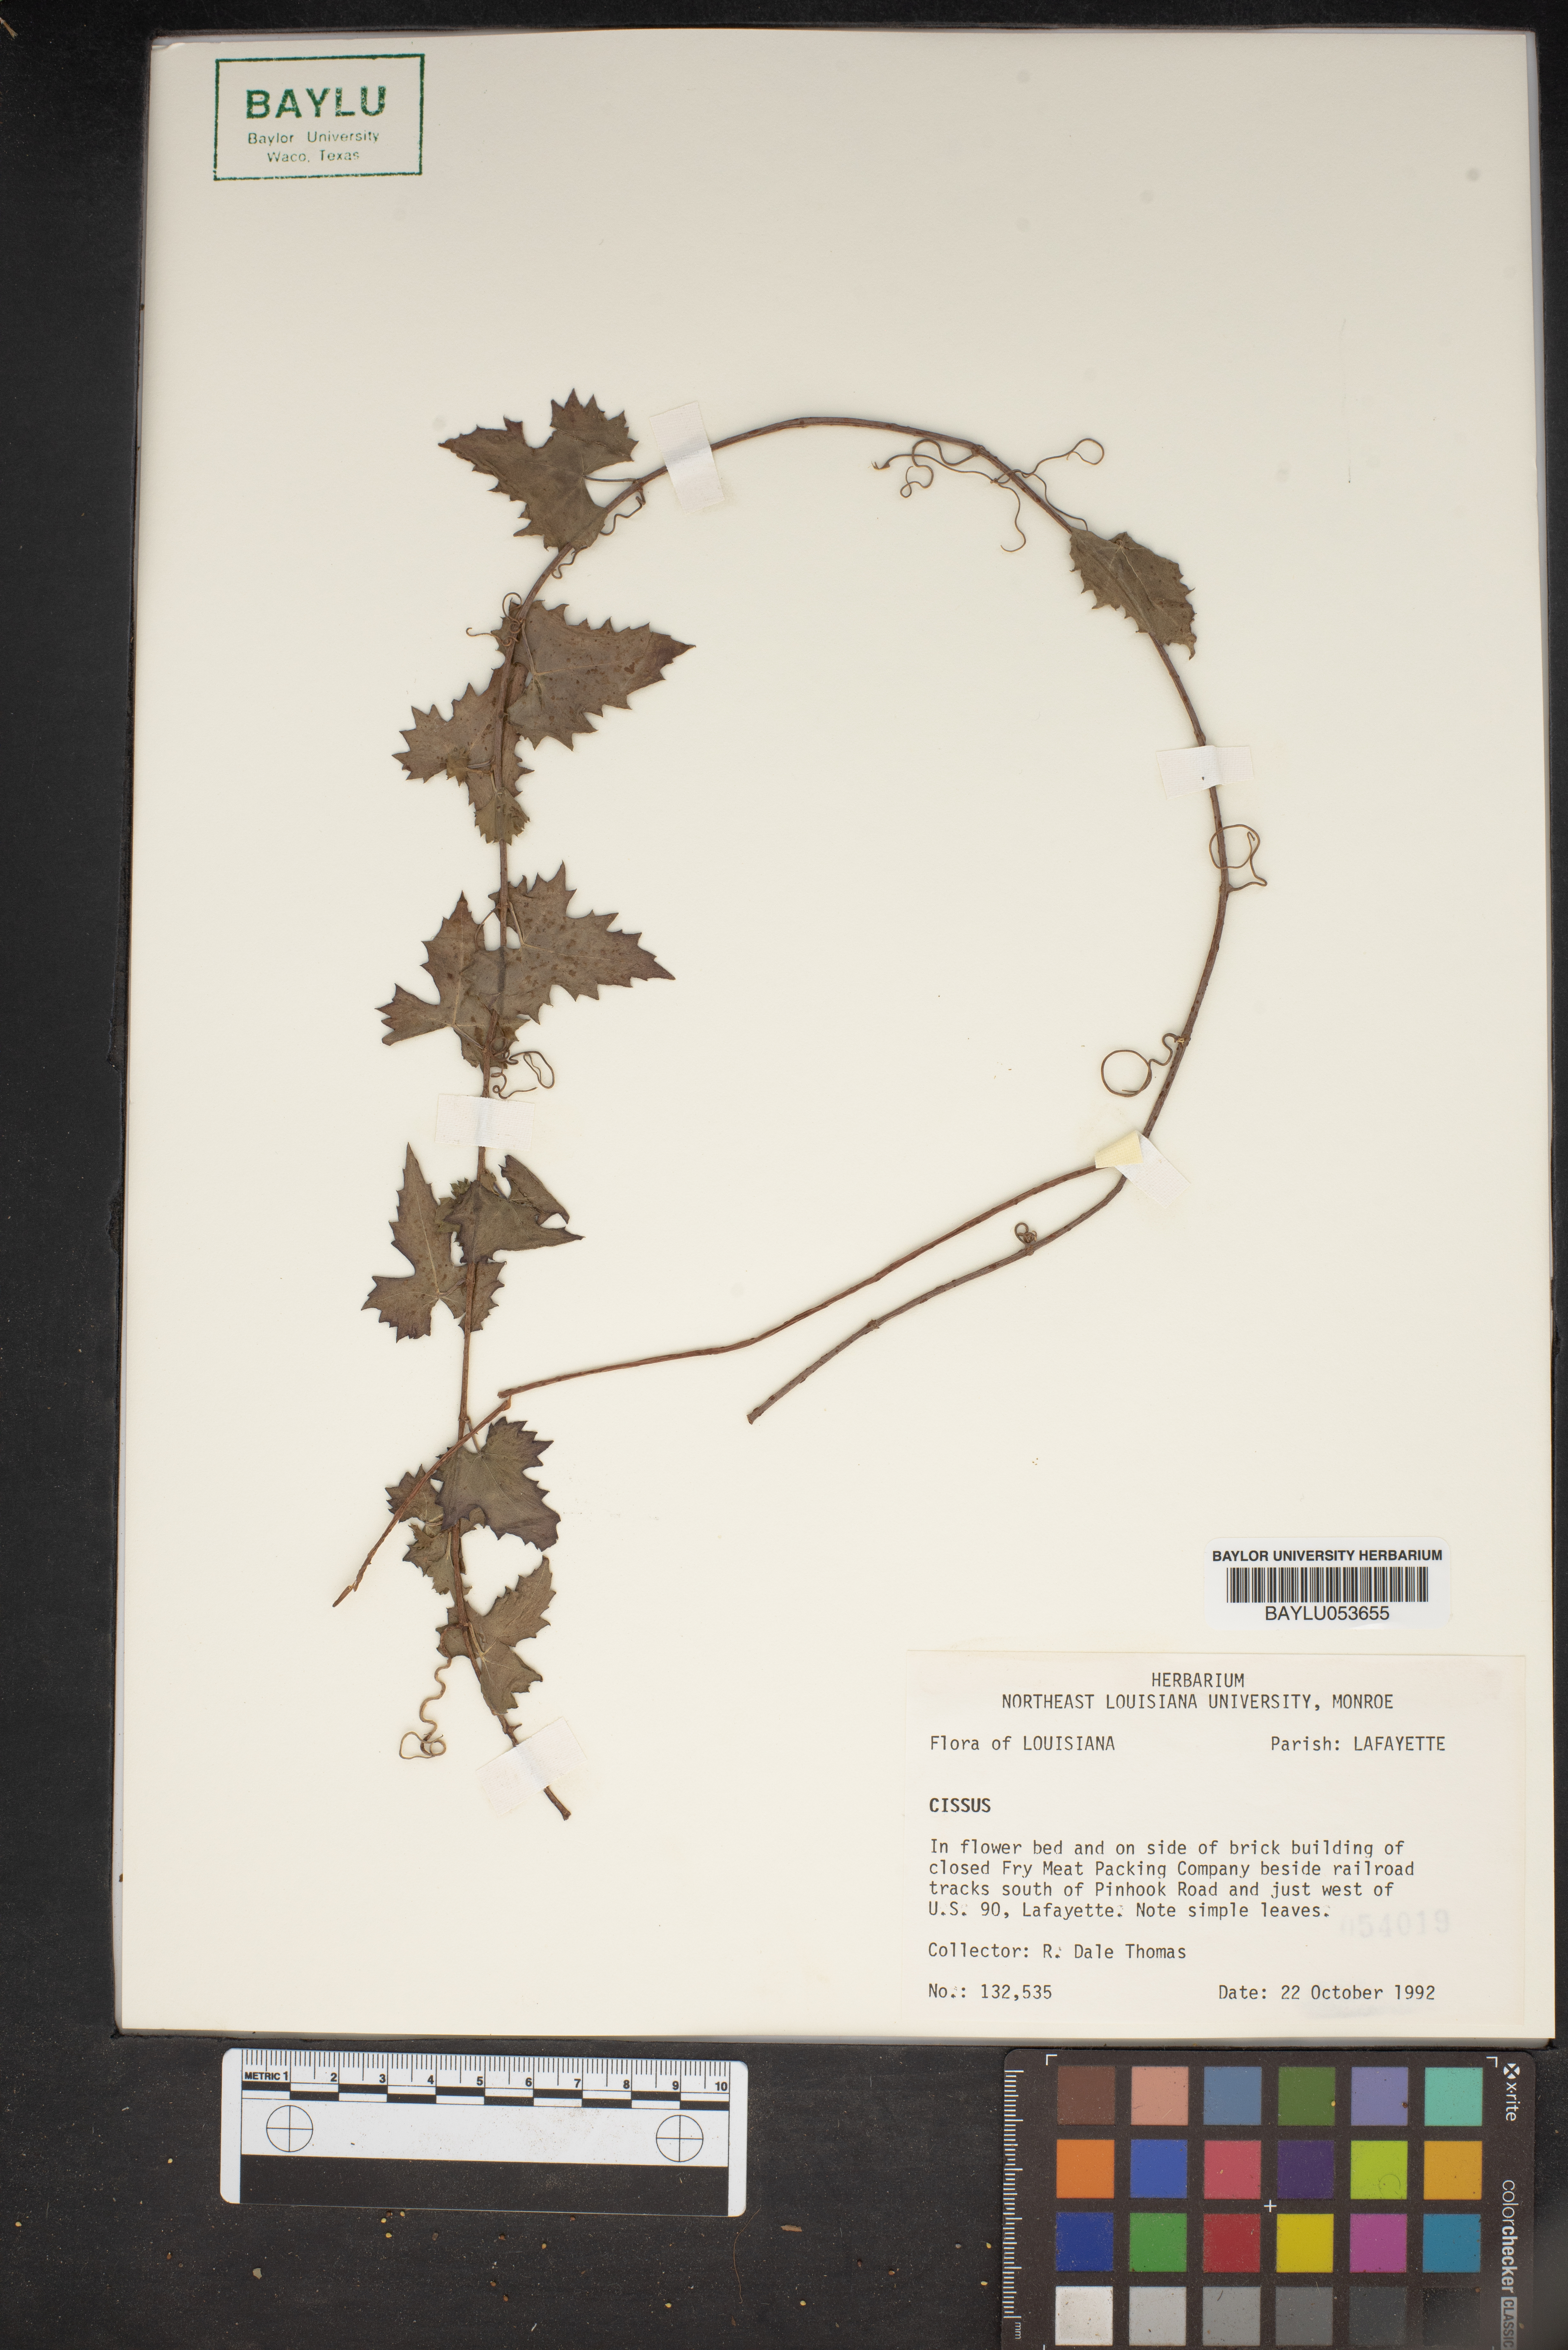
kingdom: Plantae
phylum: Tracheophyta
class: Magnoliopsida
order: Vitales
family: Vitaceae
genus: Cissus
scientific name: Cissus
